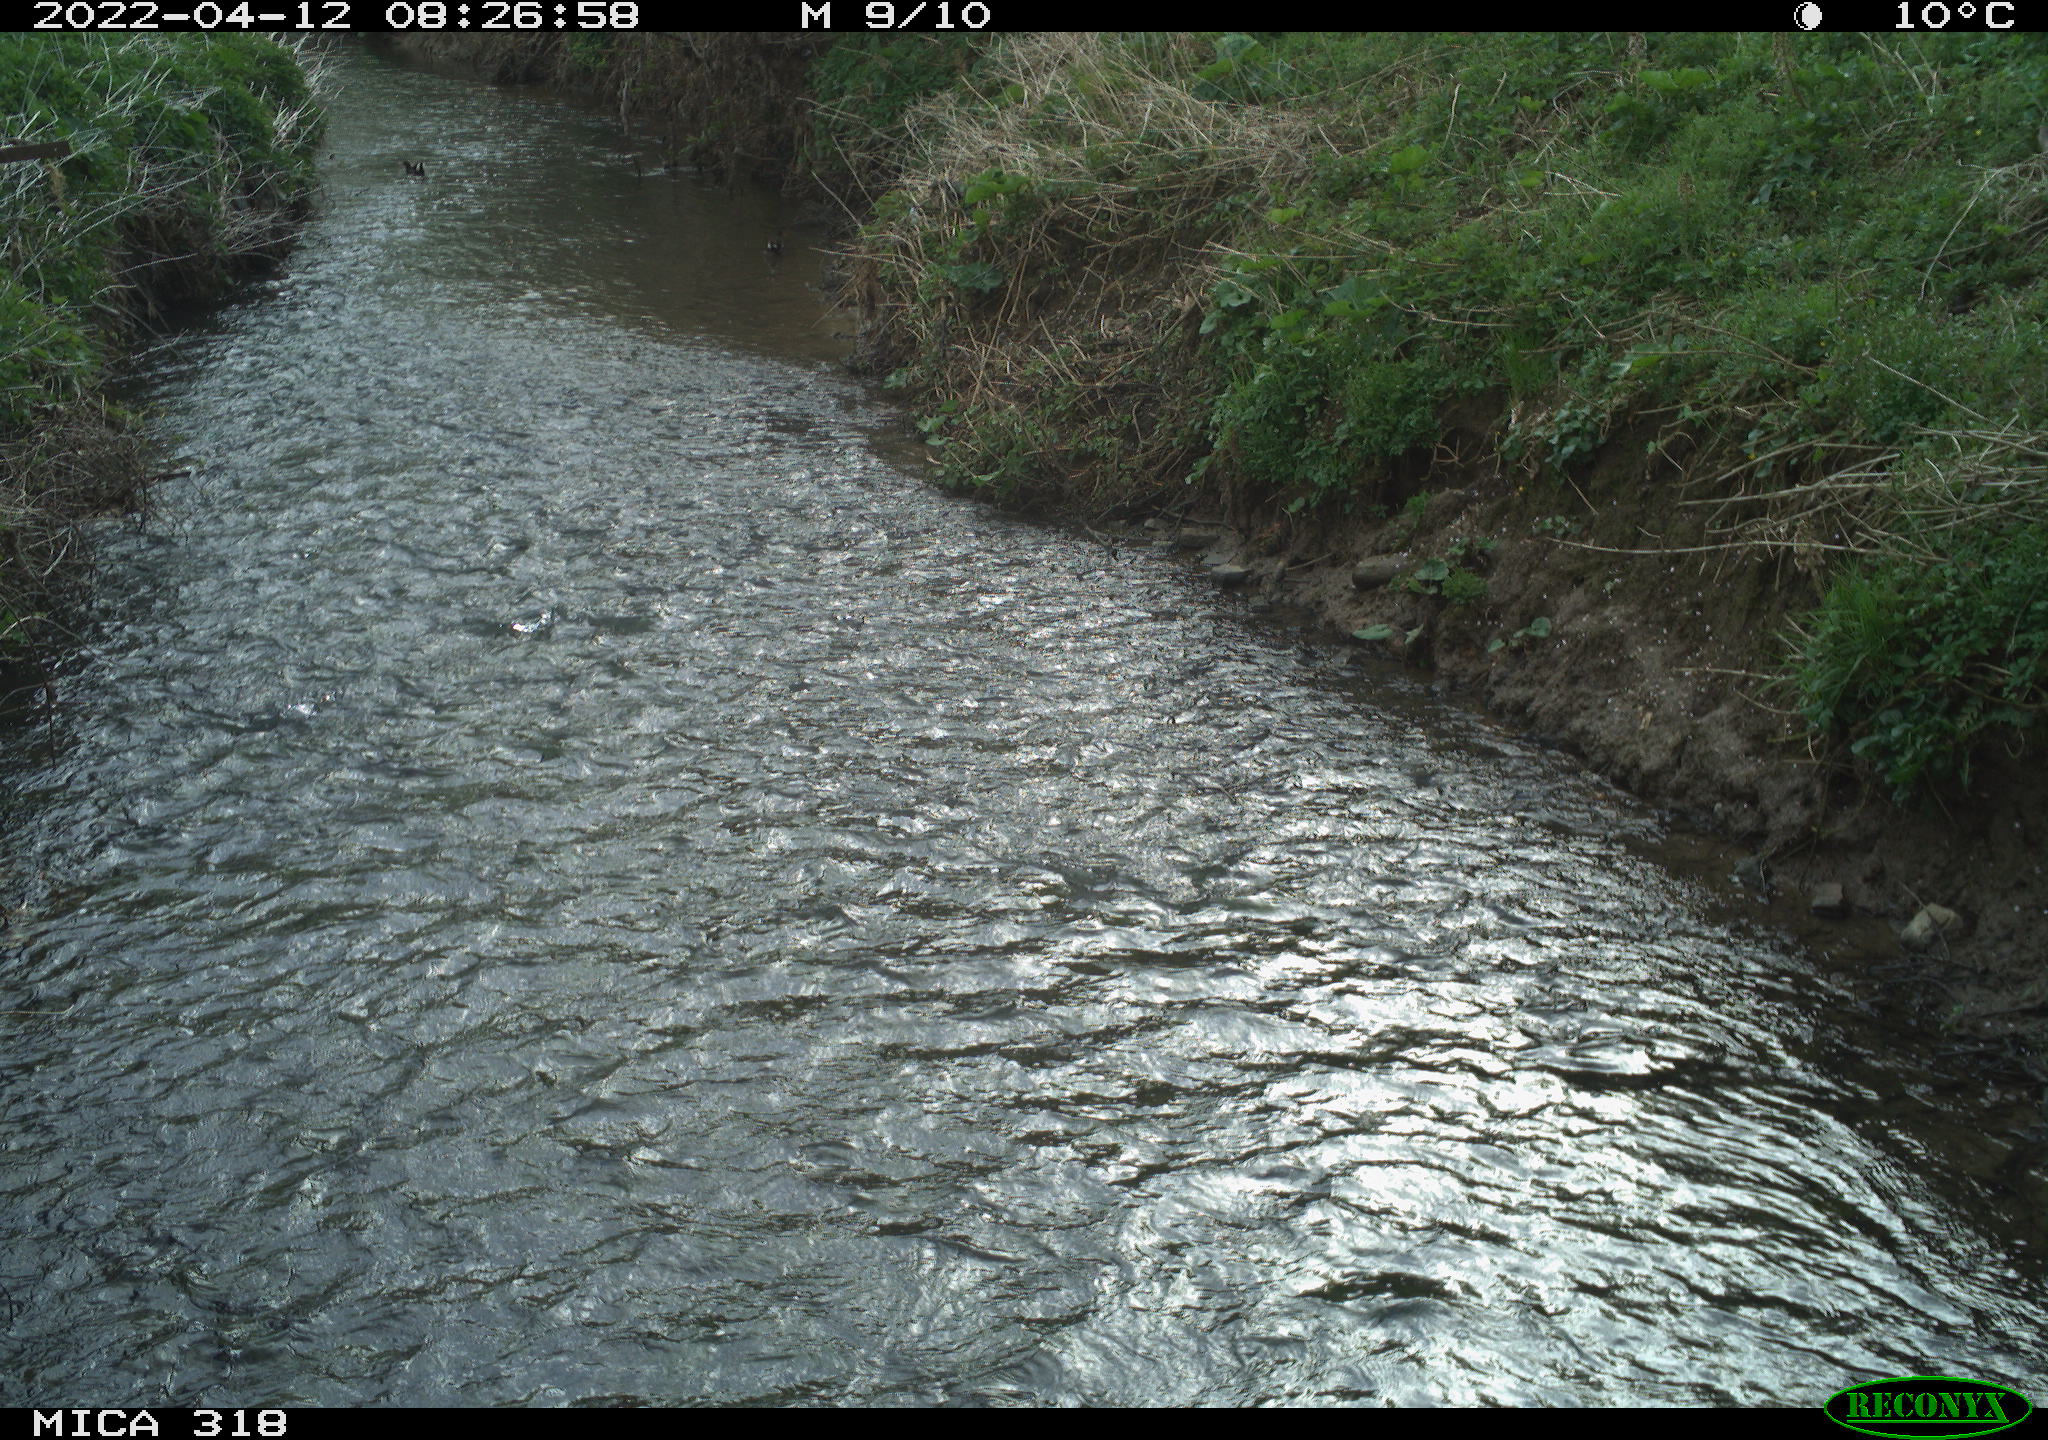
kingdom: Animalia
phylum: Chordata
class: Aves
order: Gruiformes
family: Rallidae
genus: Gallinula
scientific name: Gallinula chloropus
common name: Common moorhen
